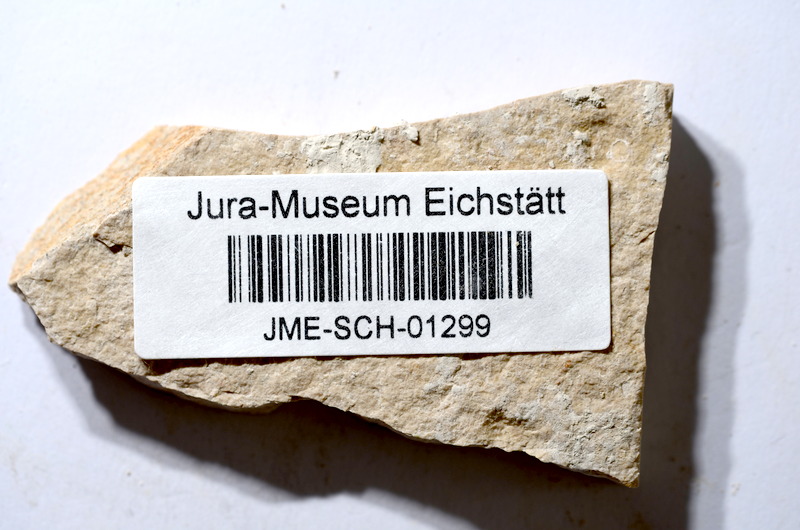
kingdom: Animalia
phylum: Chordata
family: Ascalaboidae
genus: Tharsis
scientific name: Tharsis dubius
